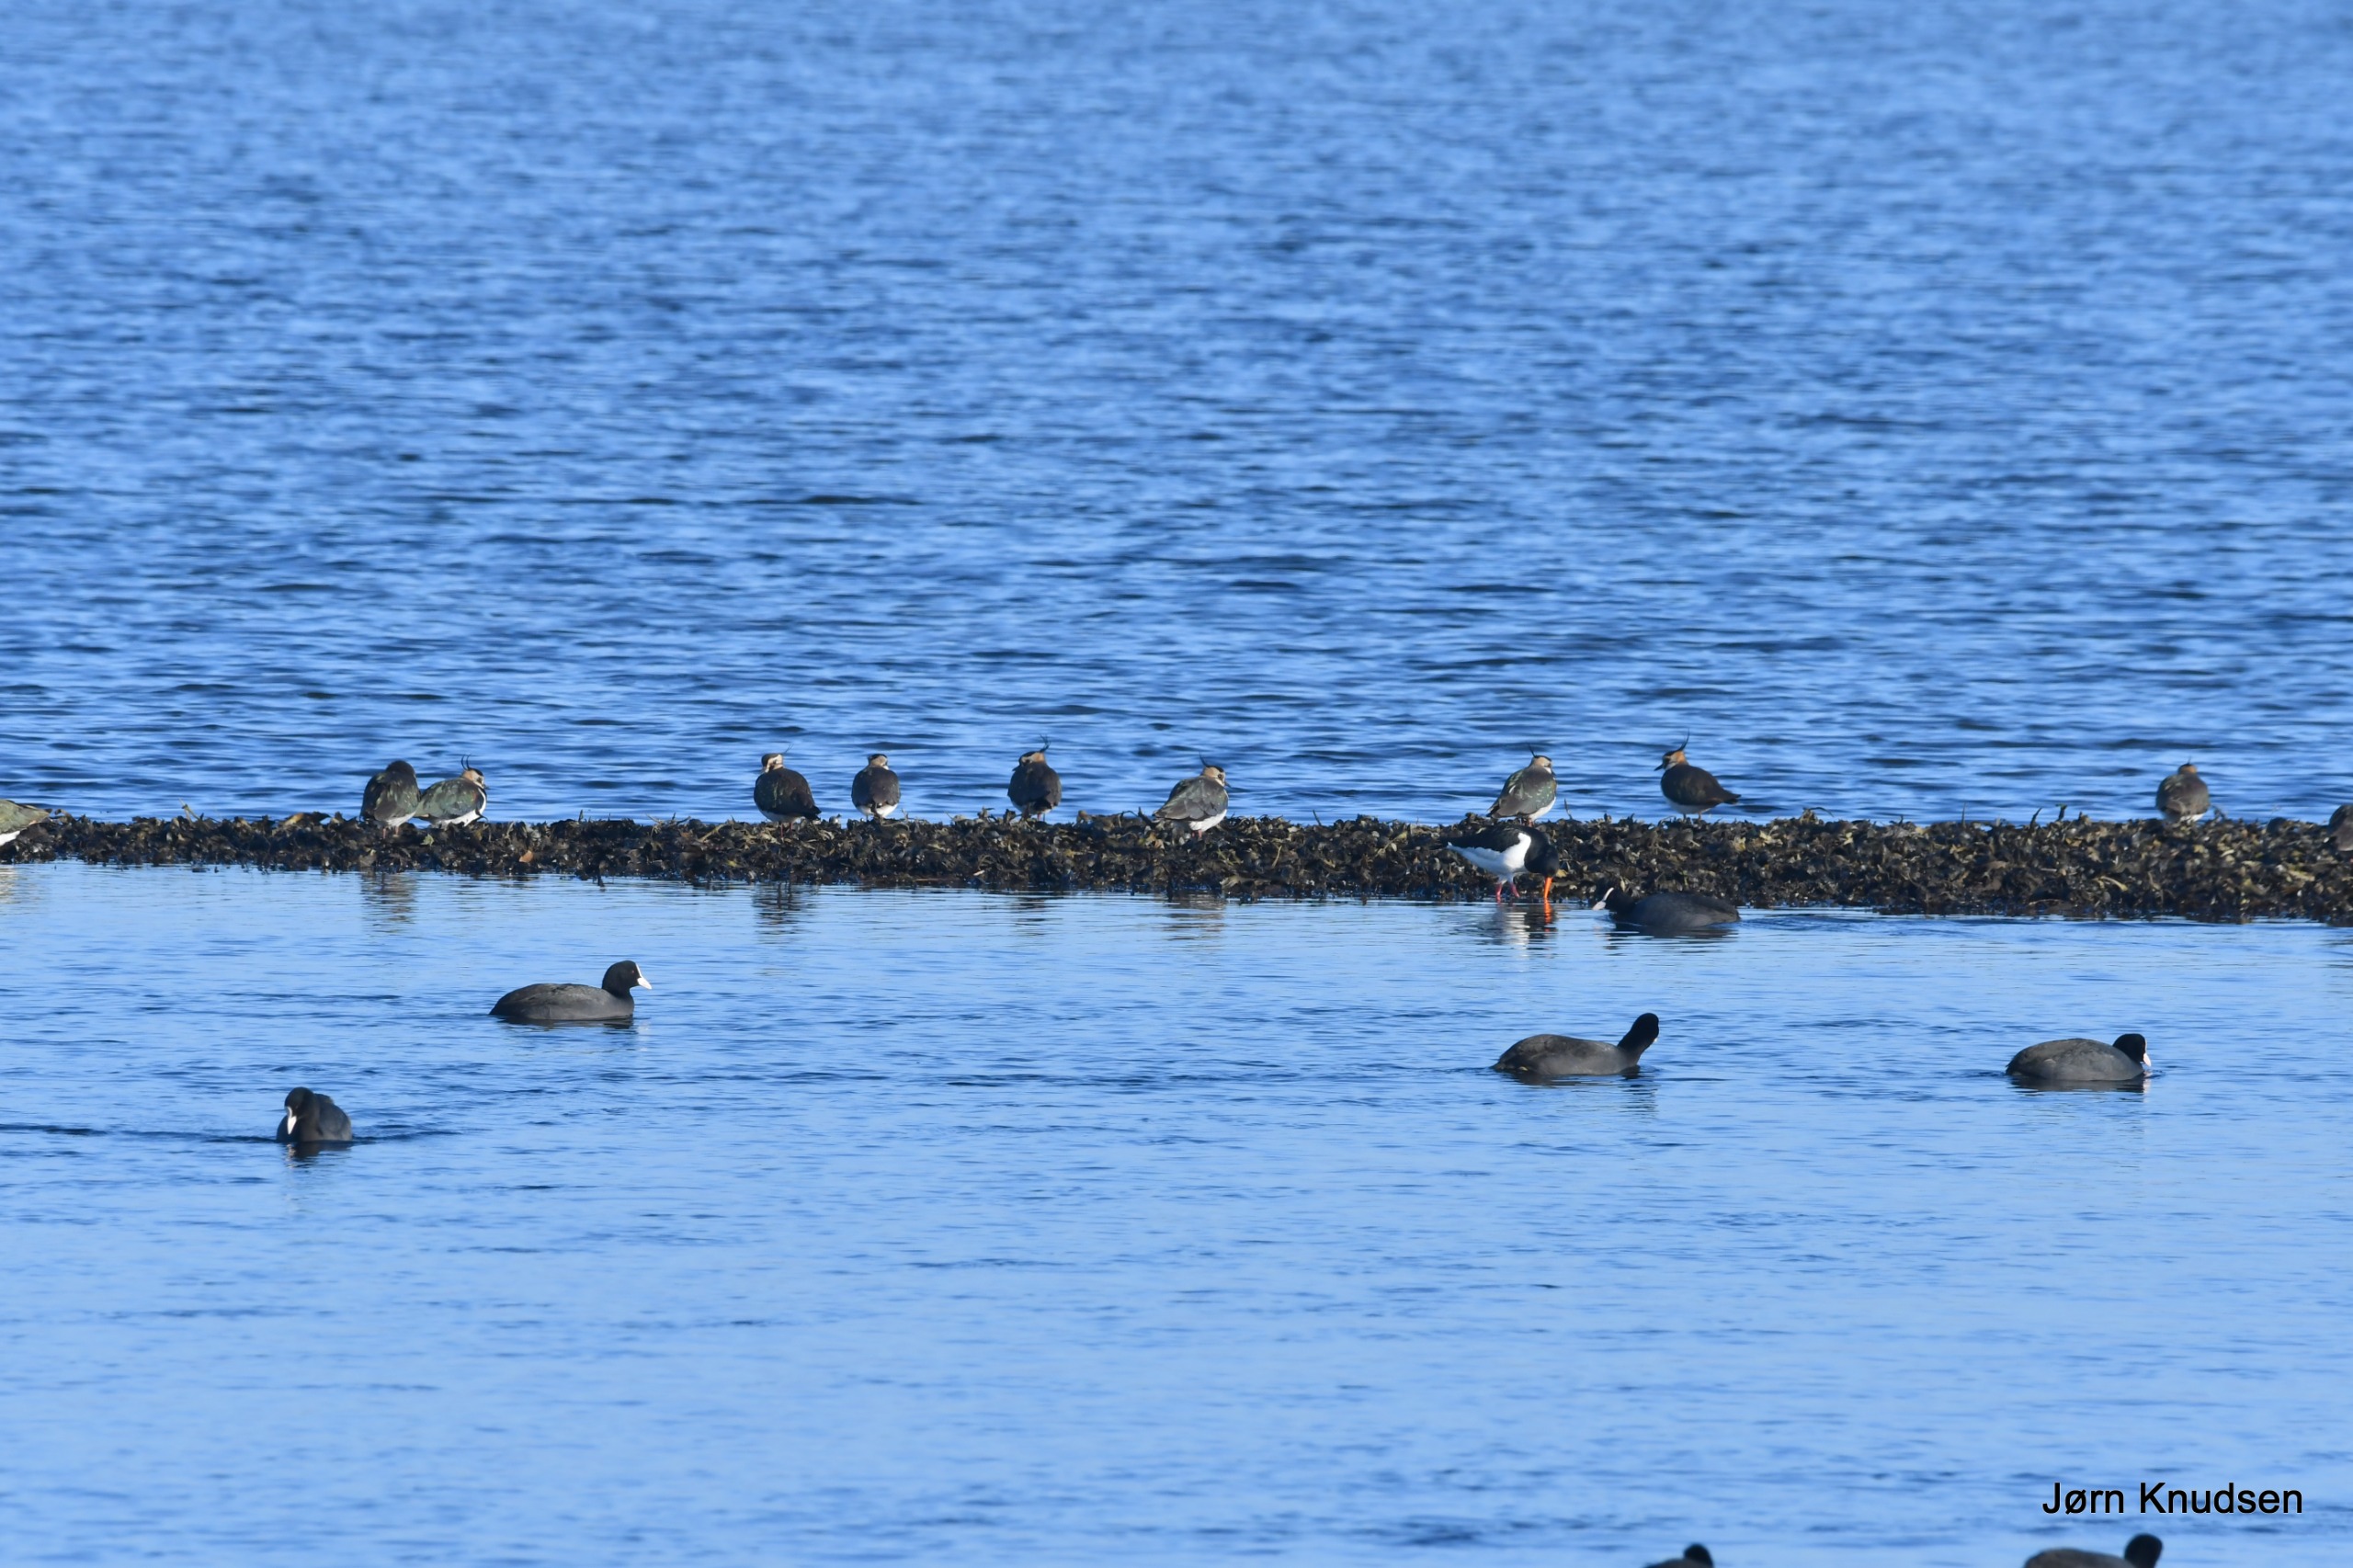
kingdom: Animalia
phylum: Chordata
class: Aves
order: Charadriiformes
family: Charadriidae
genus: Vanellus
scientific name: Vanellus vanellus
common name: Vibe
